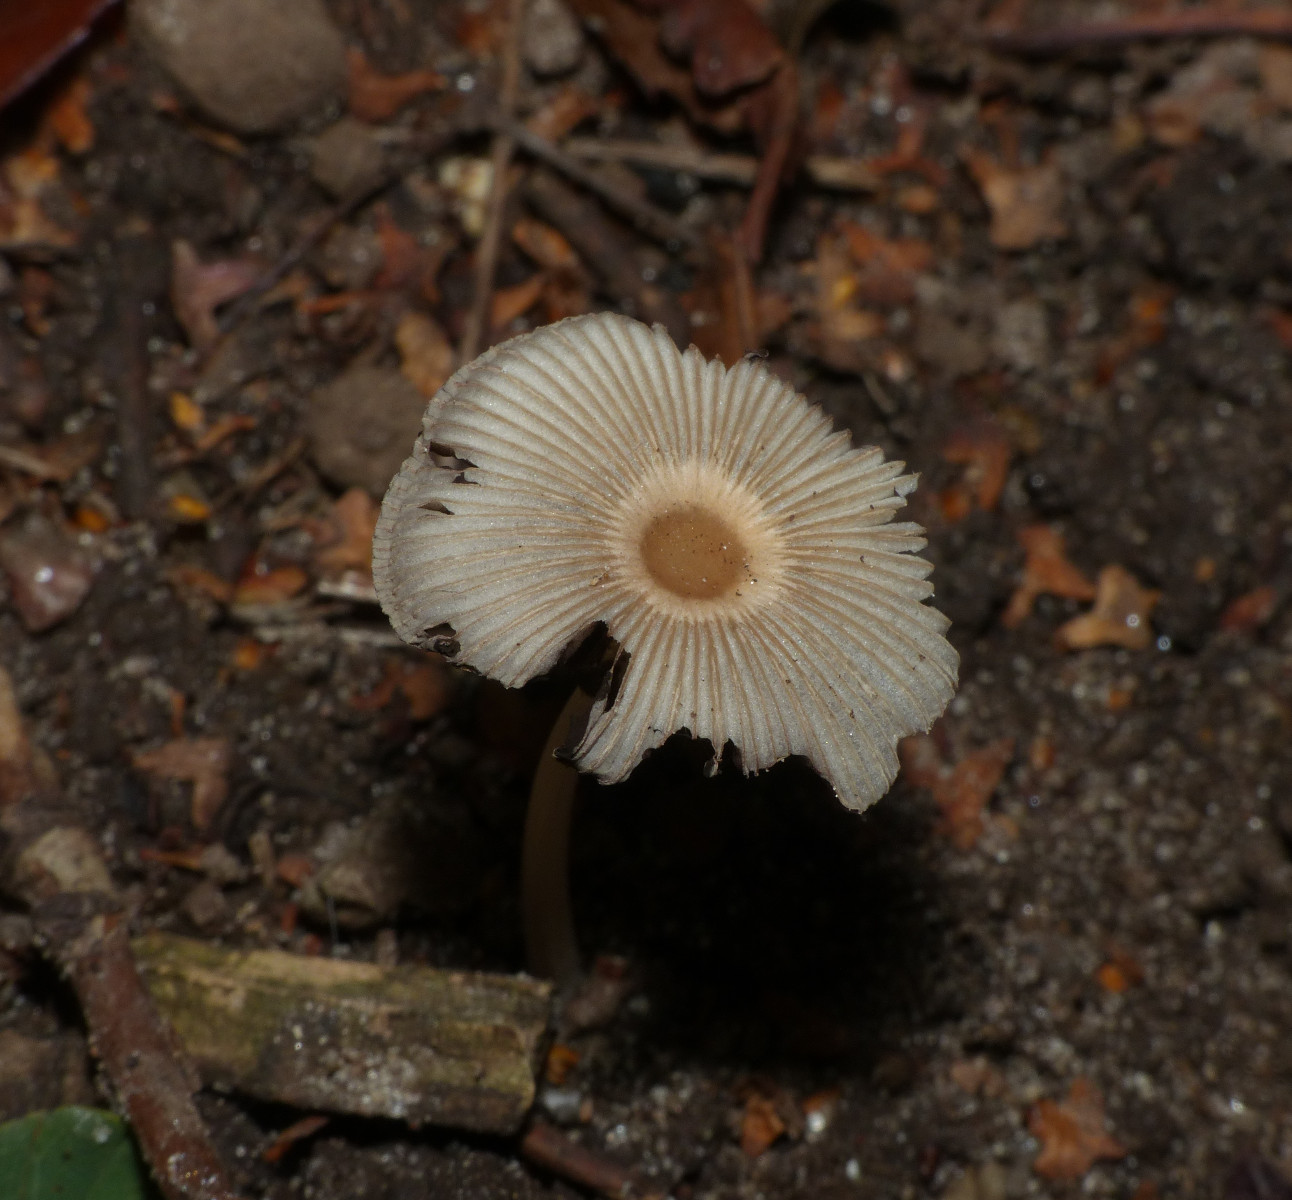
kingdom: Fungi
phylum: Basidiomycota
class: Agaricomycetes
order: Agaricales
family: Psathyrellaceae
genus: Parasola
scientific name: Parasola
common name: hjulhat
